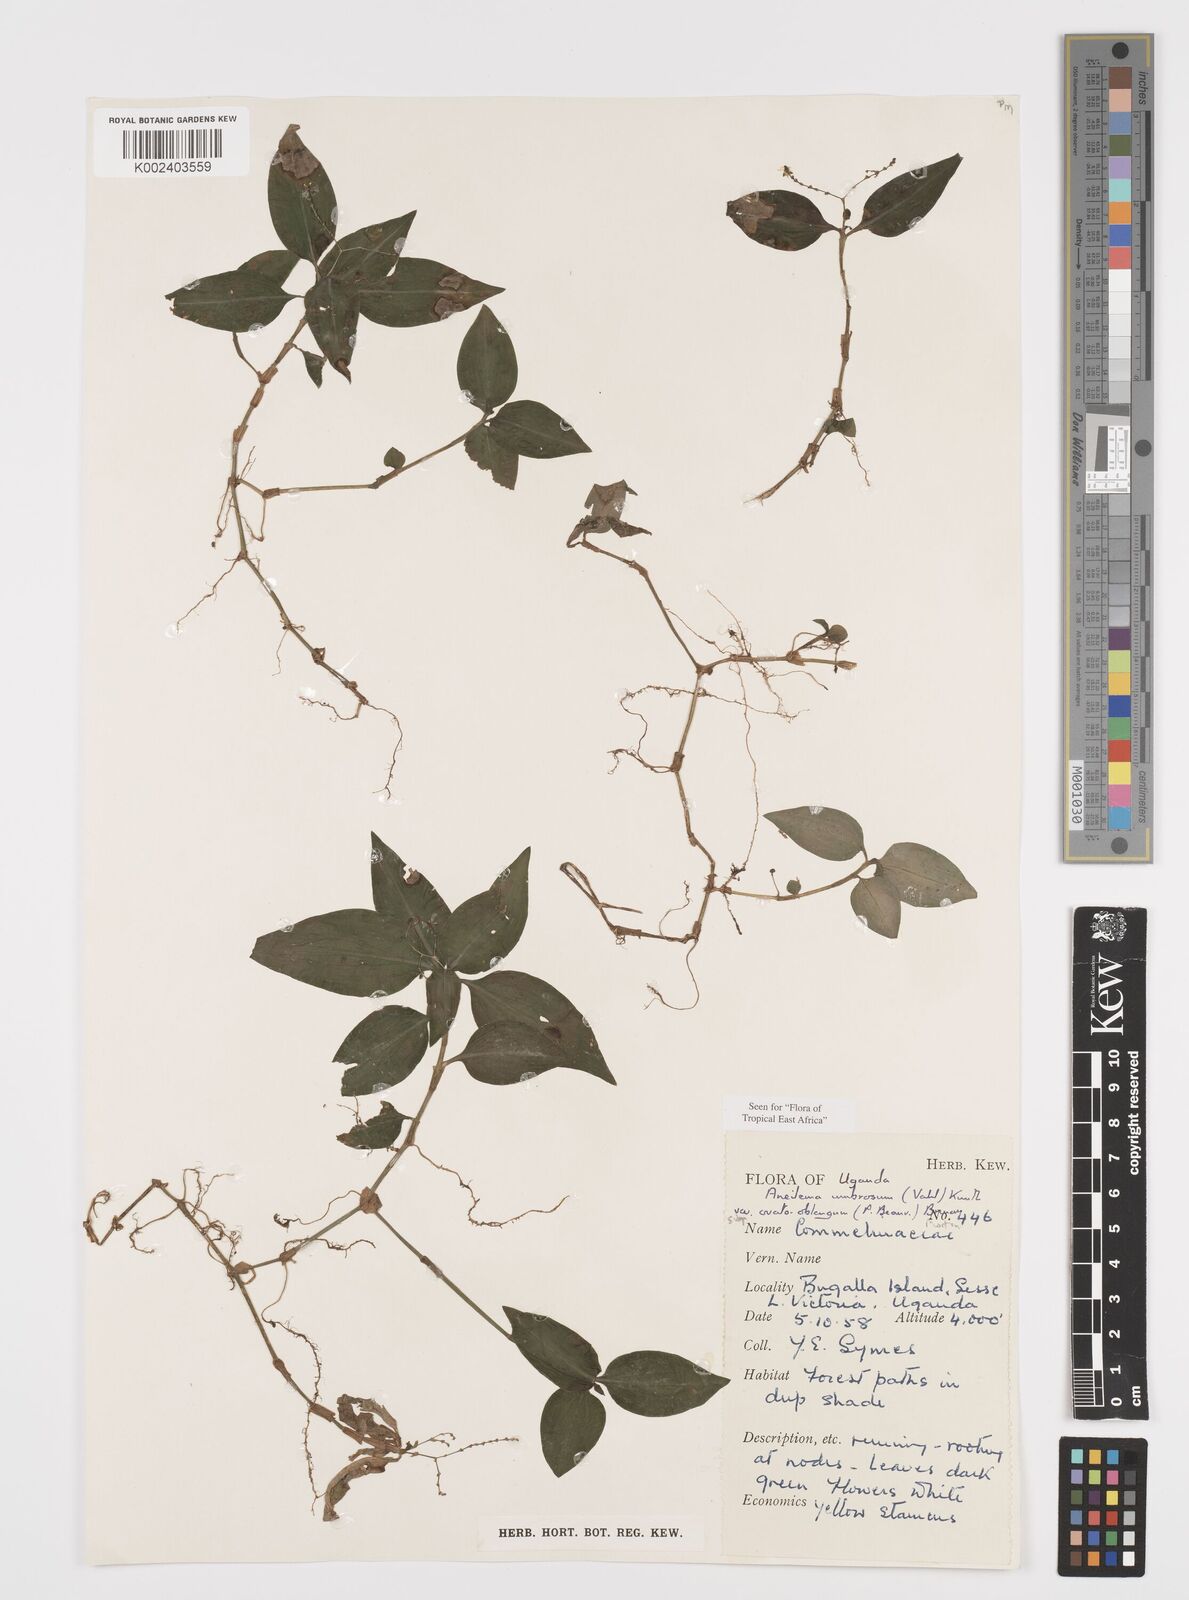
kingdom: Plantae
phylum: Tracheophyta
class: Liliopsida
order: Commelinales
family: Commelinaceae
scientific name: Commelinaceae
